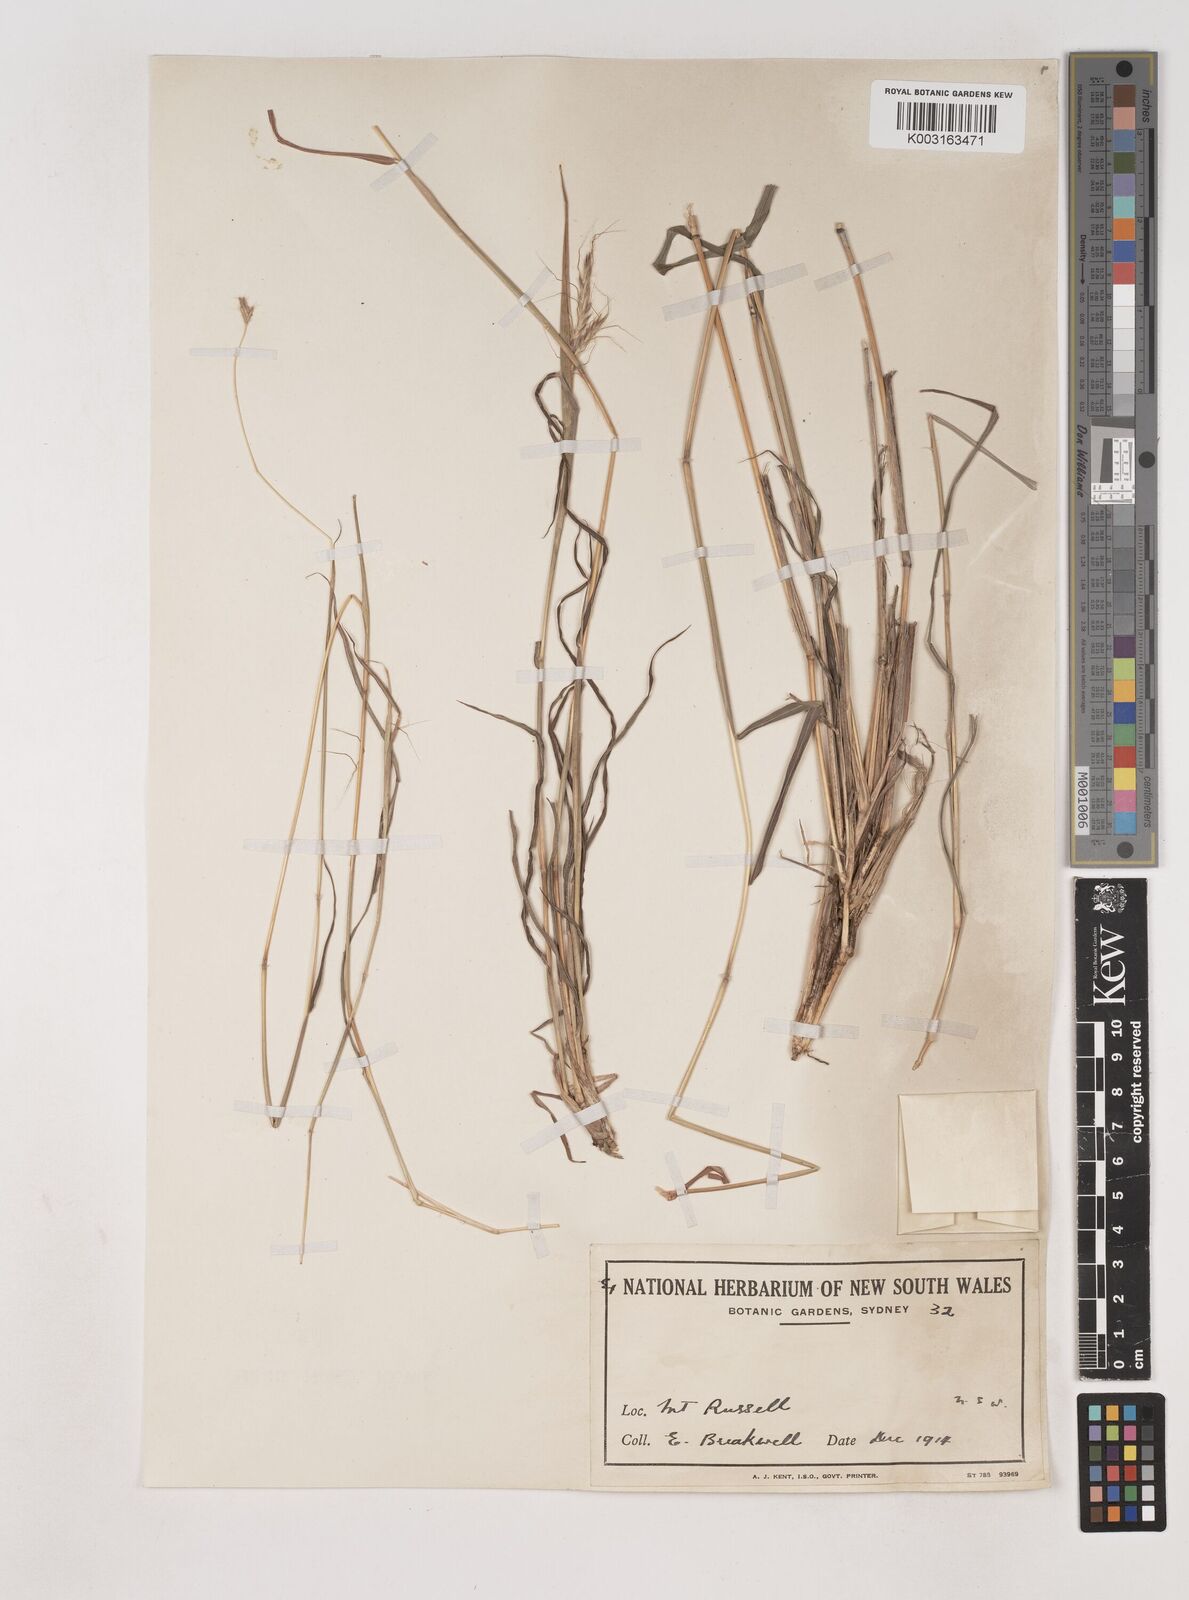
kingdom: Plantae
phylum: Tracheophyta
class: Liliopsida
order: Poales
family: Poaceae
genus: Dichanthium
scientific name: Dichanthium setosum
